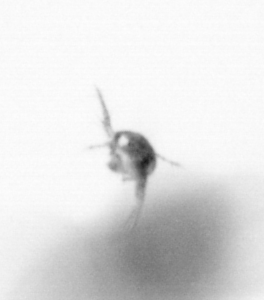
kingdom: Animalia
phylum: Arthropoda
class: Copepoda
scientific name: Copepoda
